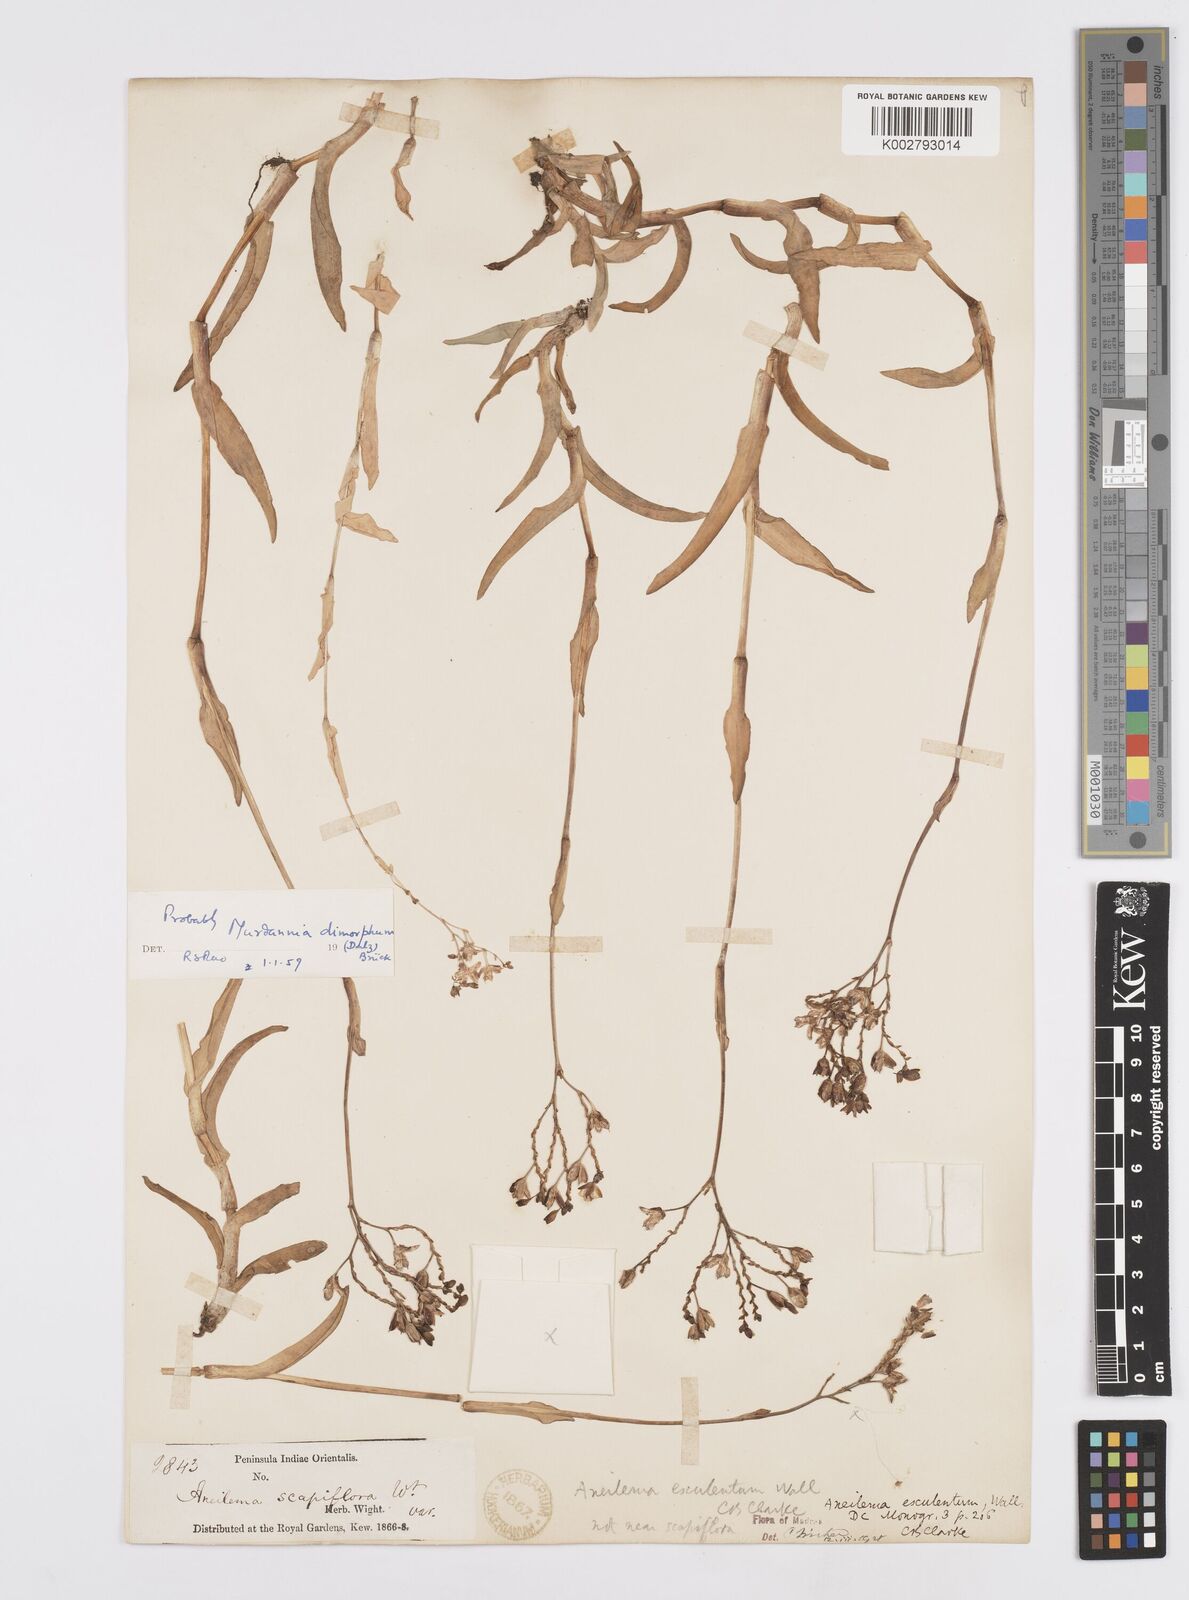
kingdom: Plantae
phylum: Tracheophyta
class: Liliopsida
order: Commelinales
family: Commelinaceae
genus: Murdannia
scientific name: Murdannia esculenta
